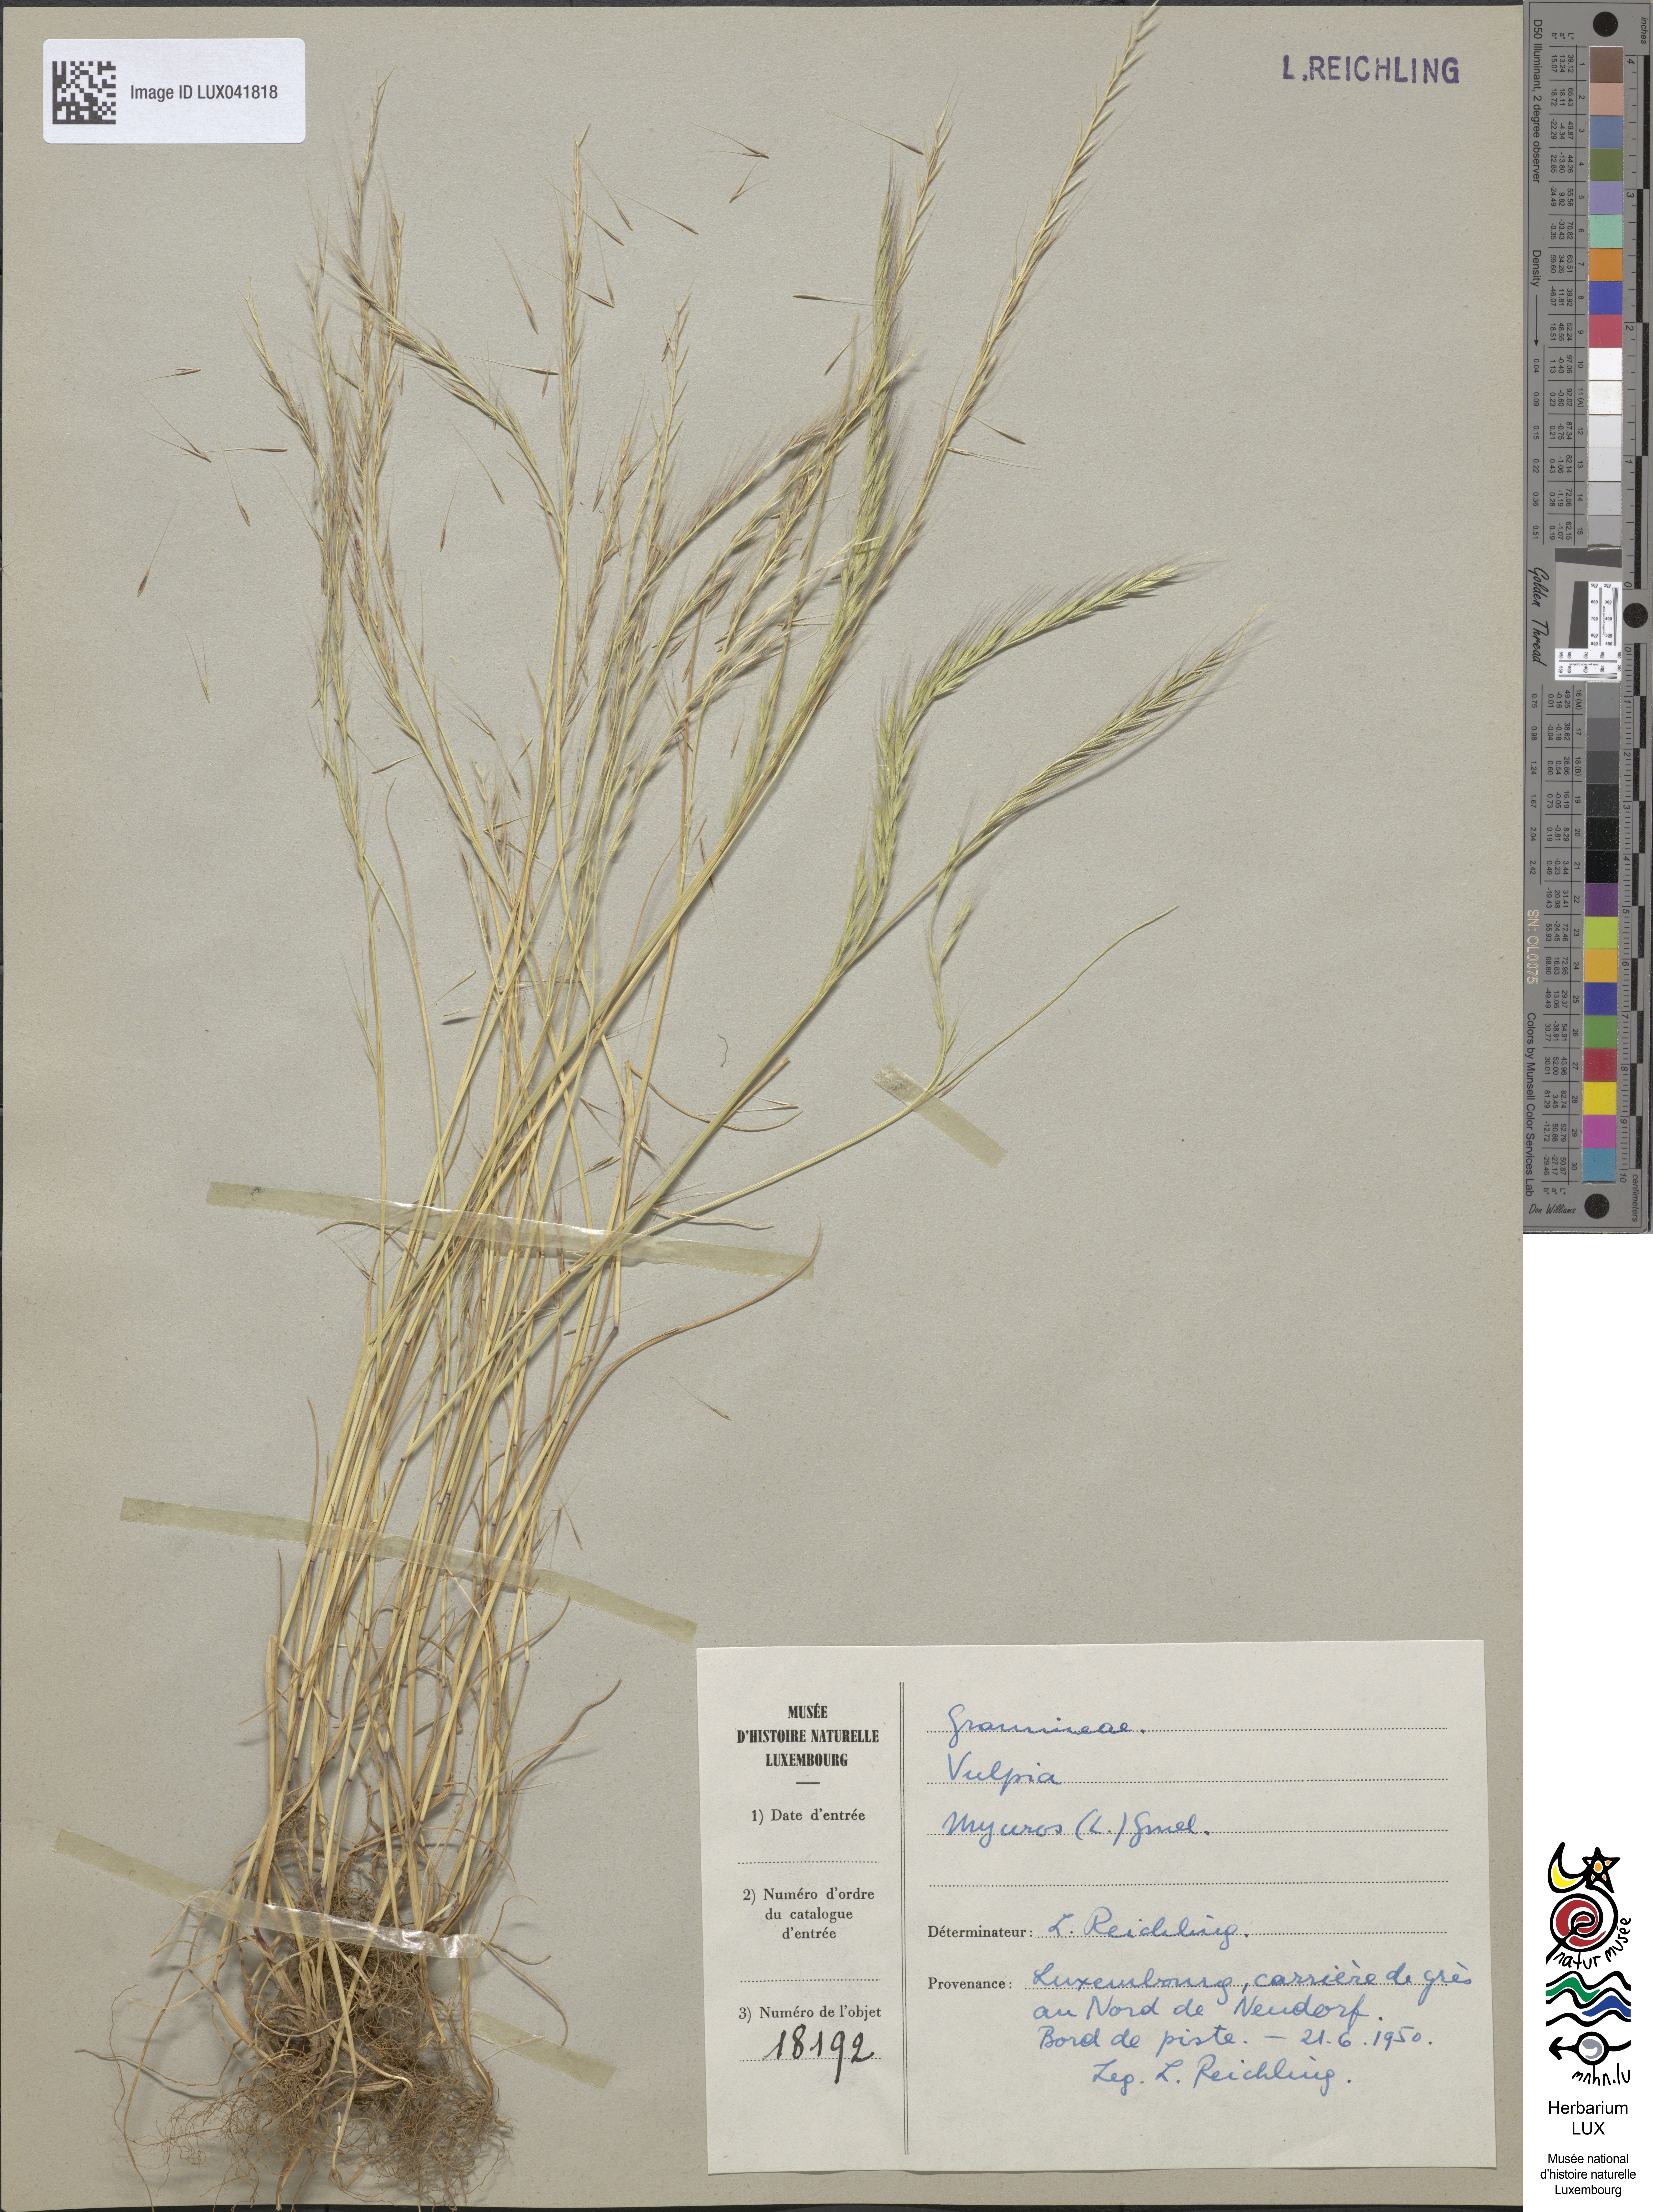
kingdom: Plantae
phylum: Tracheophyta
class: Liliopsida
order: Poales
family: Poaceae
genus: Festuca
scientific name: Festuca myuros
